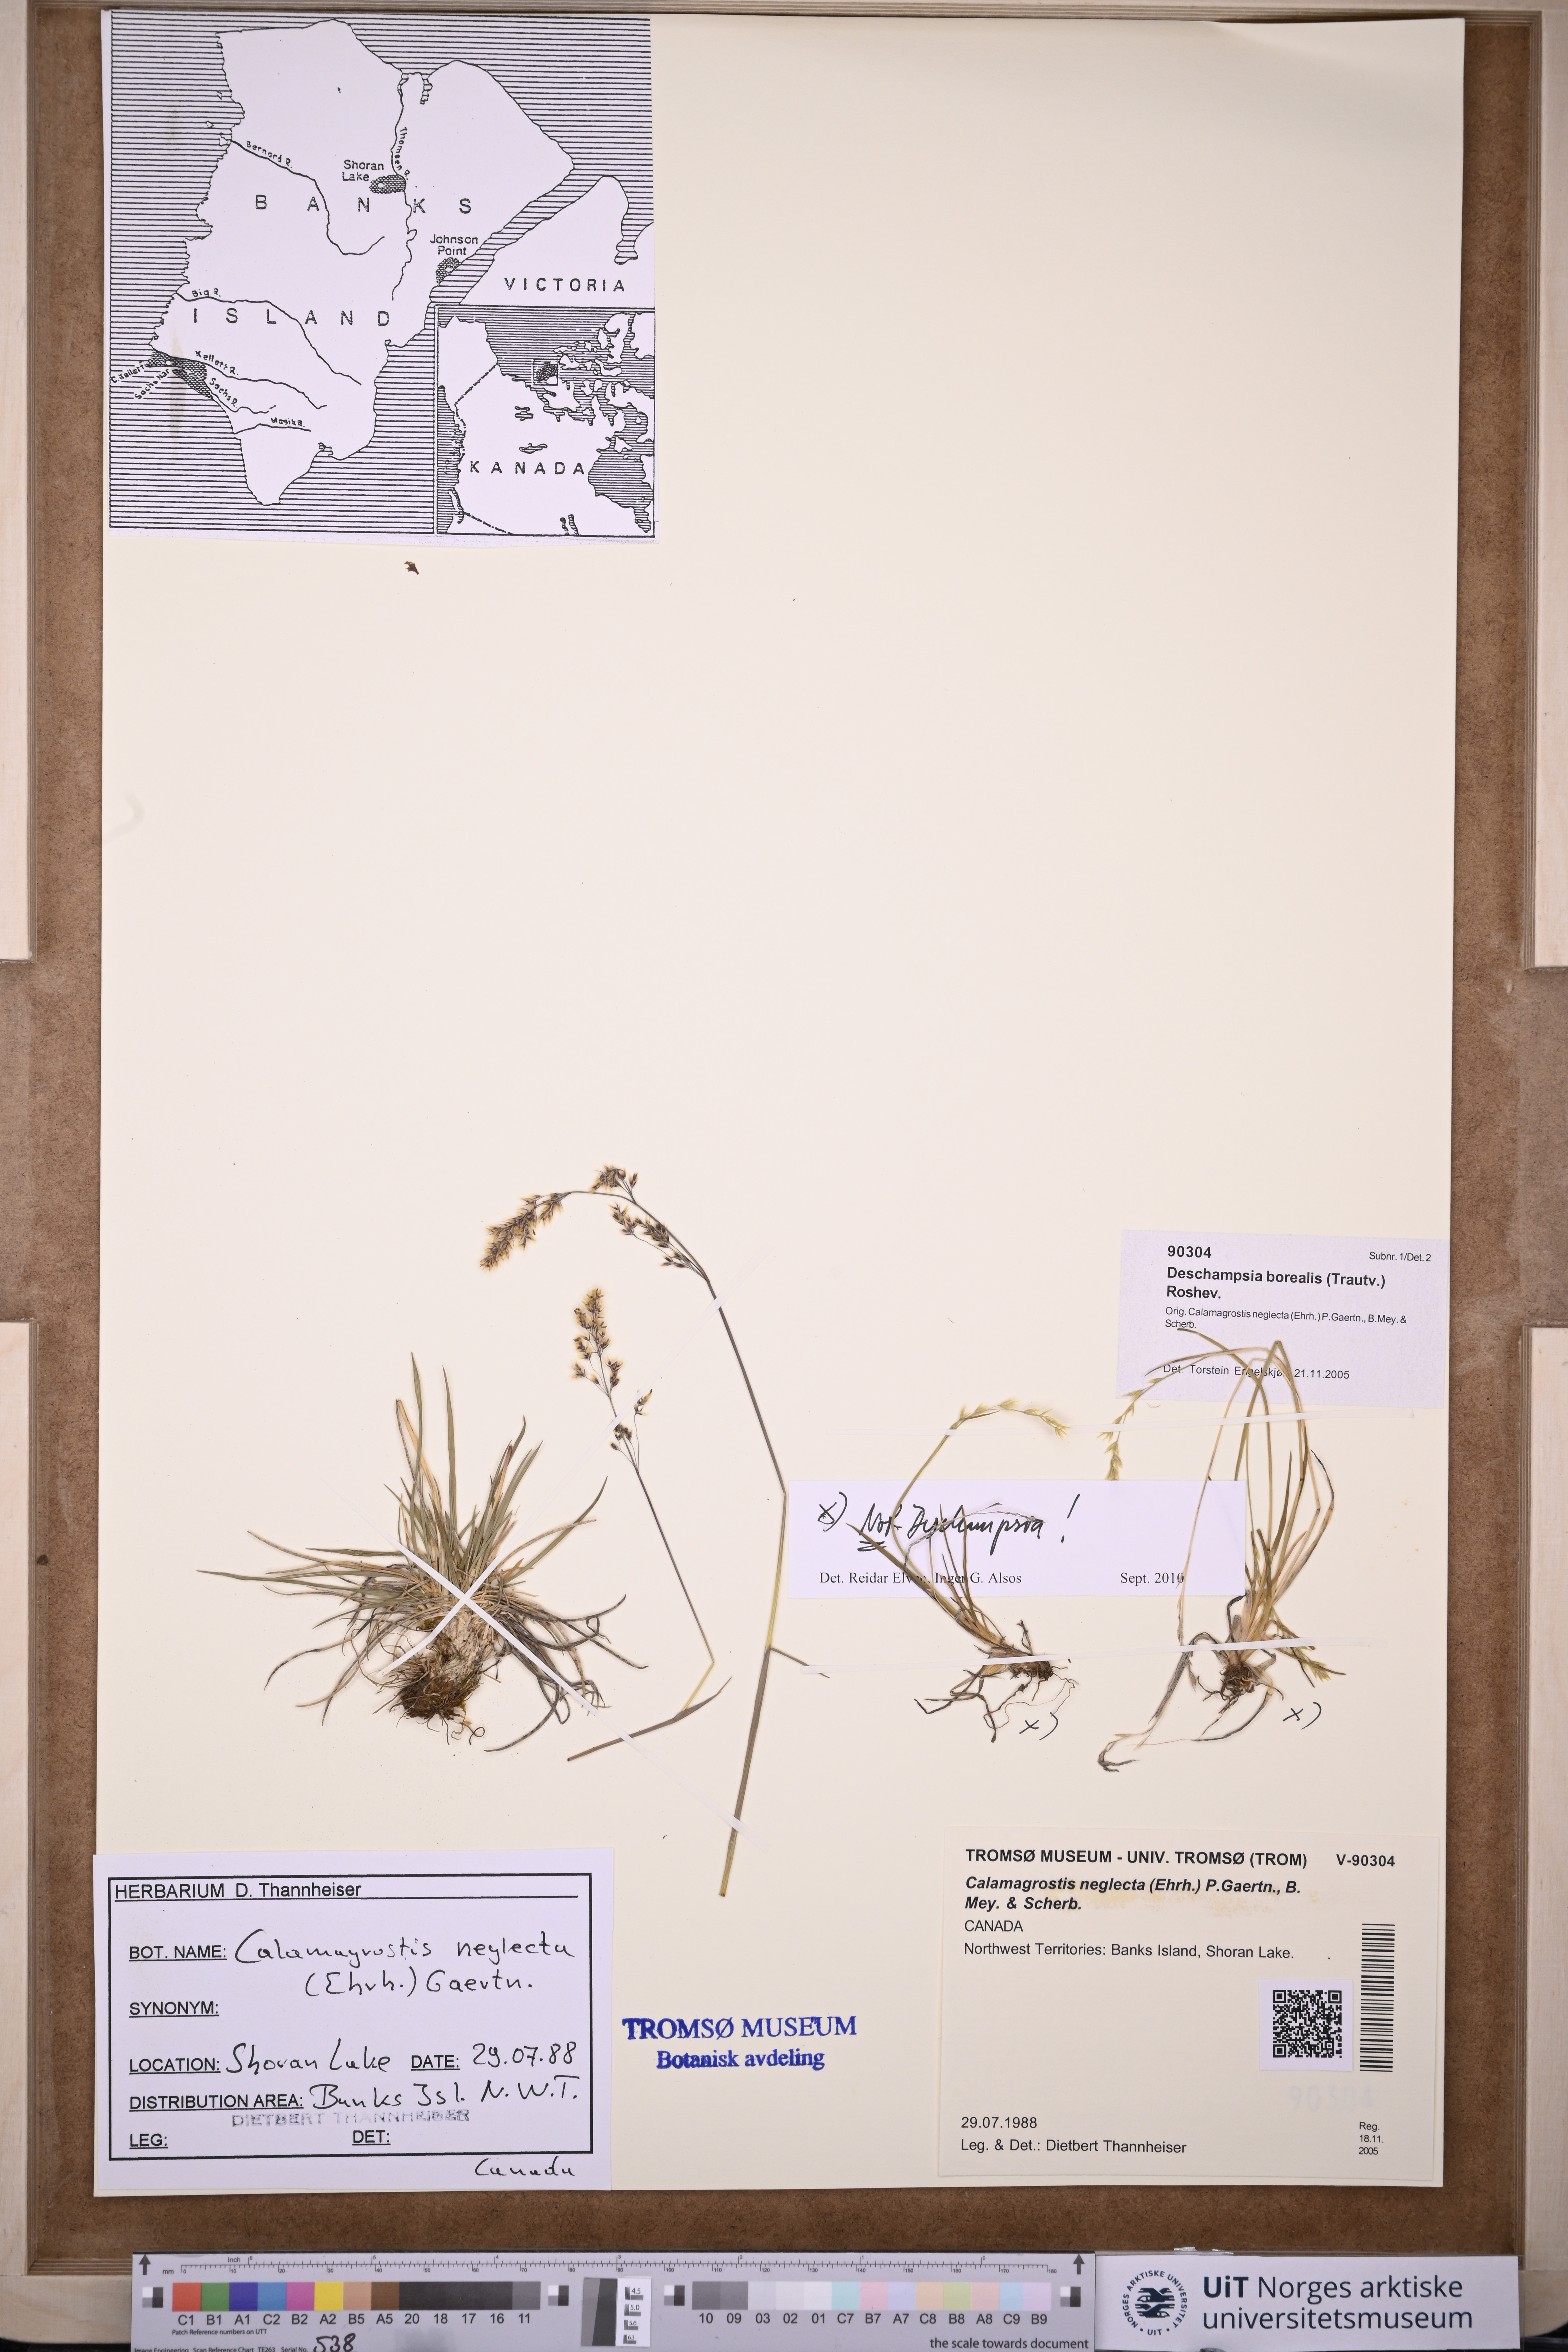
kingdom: Plantae
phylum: Tracheophyta
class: Liliopsida
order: Poales
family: Poaceae
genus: Deschampsia
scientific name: Deschampsia cespitosa
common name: Tufted hair-grass
